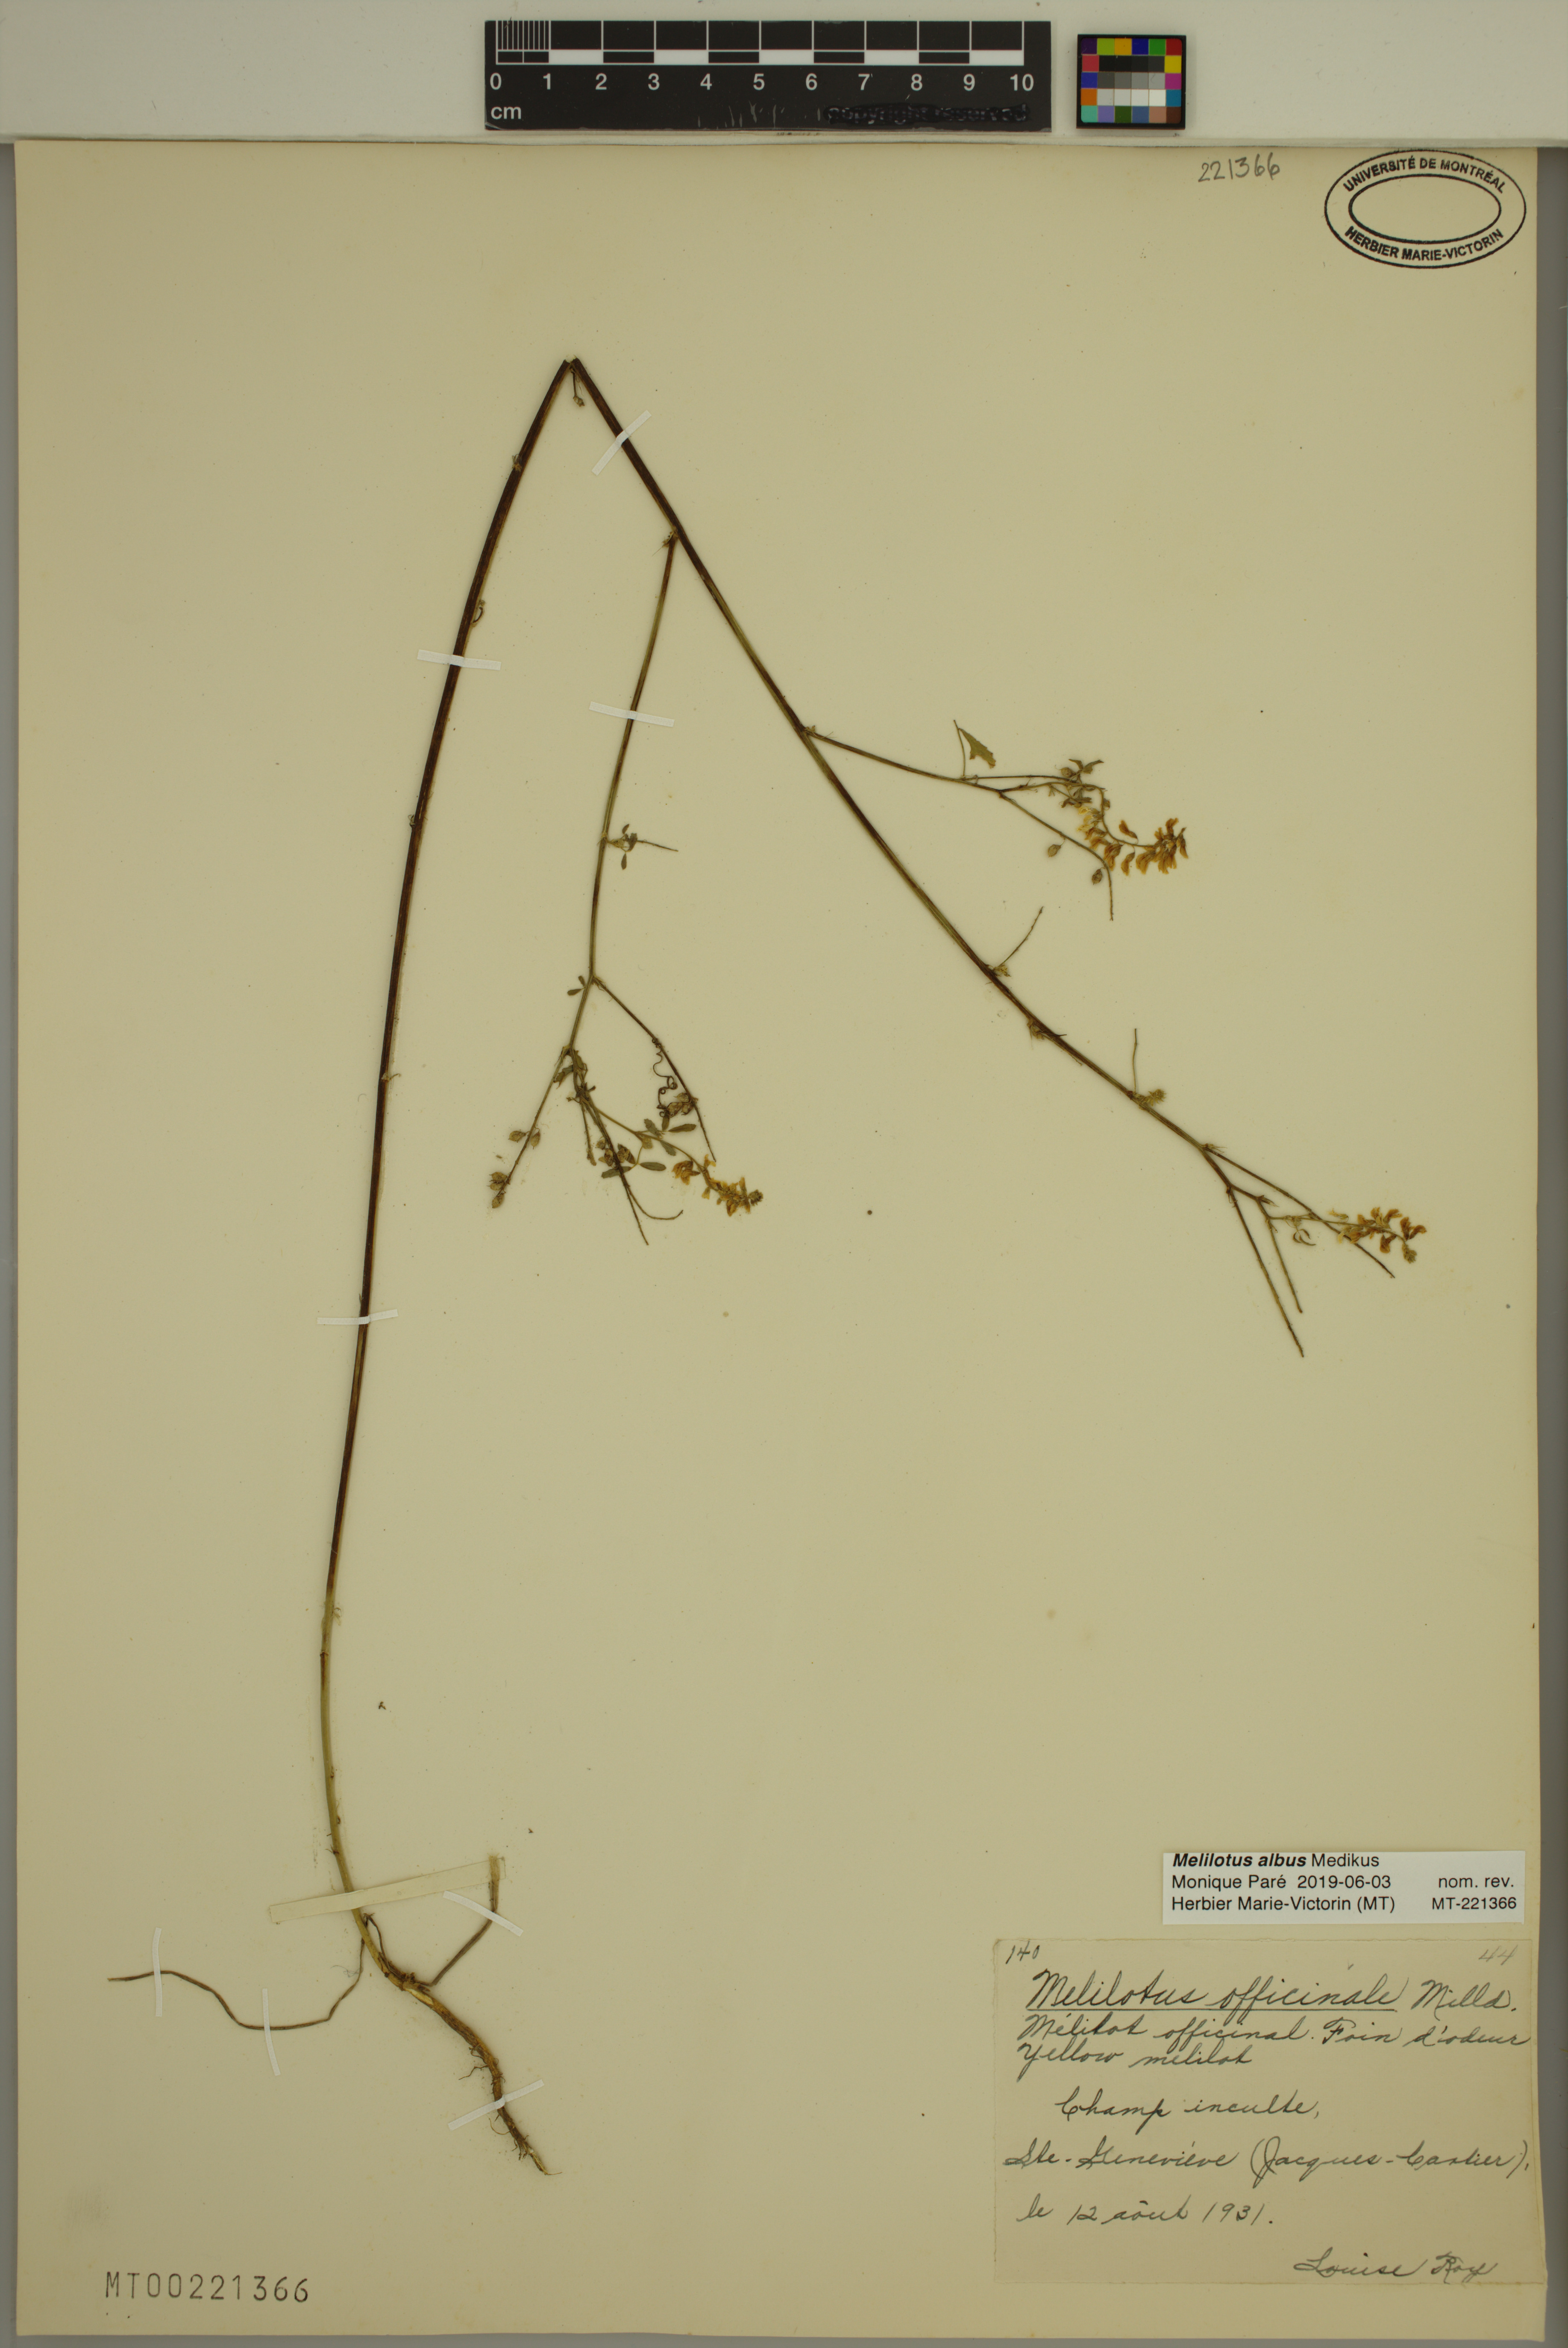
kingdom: Plantae
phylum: Tracheophyta
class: Magnoliopsida
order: Fabales
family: Fabaceae
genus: Melilotus
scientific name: Melilotus albus
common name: White melilot
